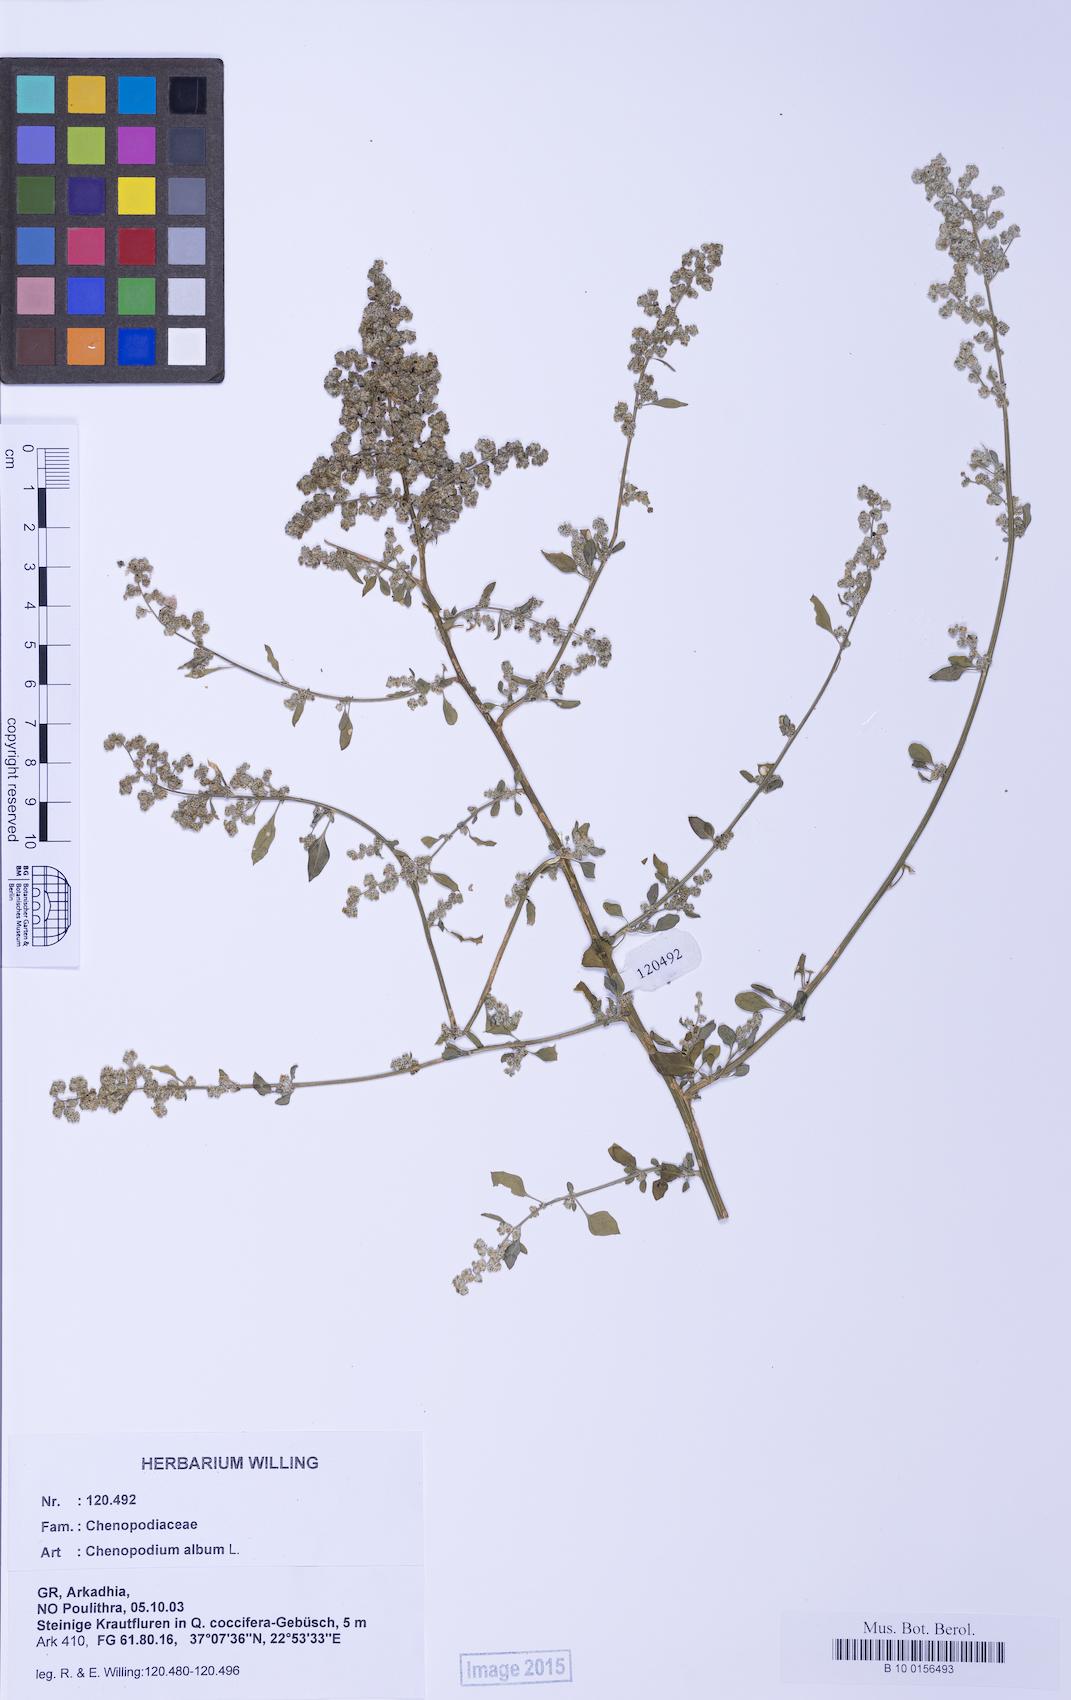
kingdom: Plantae
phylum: Tracheophyta
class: Magnoliopsida
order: Caryophyllales
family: Amaranthaceae
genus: Chenopodium
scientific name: Chenopodium album
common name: Fat-hen
